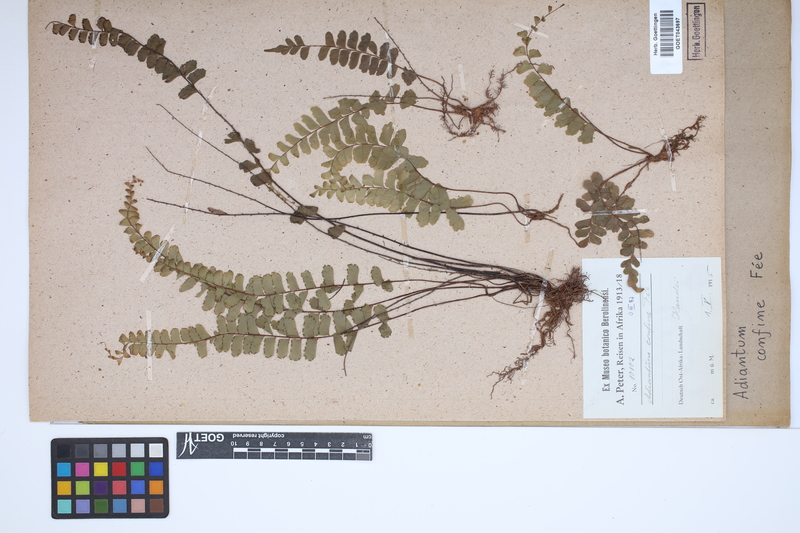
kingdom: Plantae
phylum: Tracheophyta
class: Polypodiopsida
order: Polypodiales
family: Pteridaceae
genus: Adiantum
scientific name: Adiantum confine
